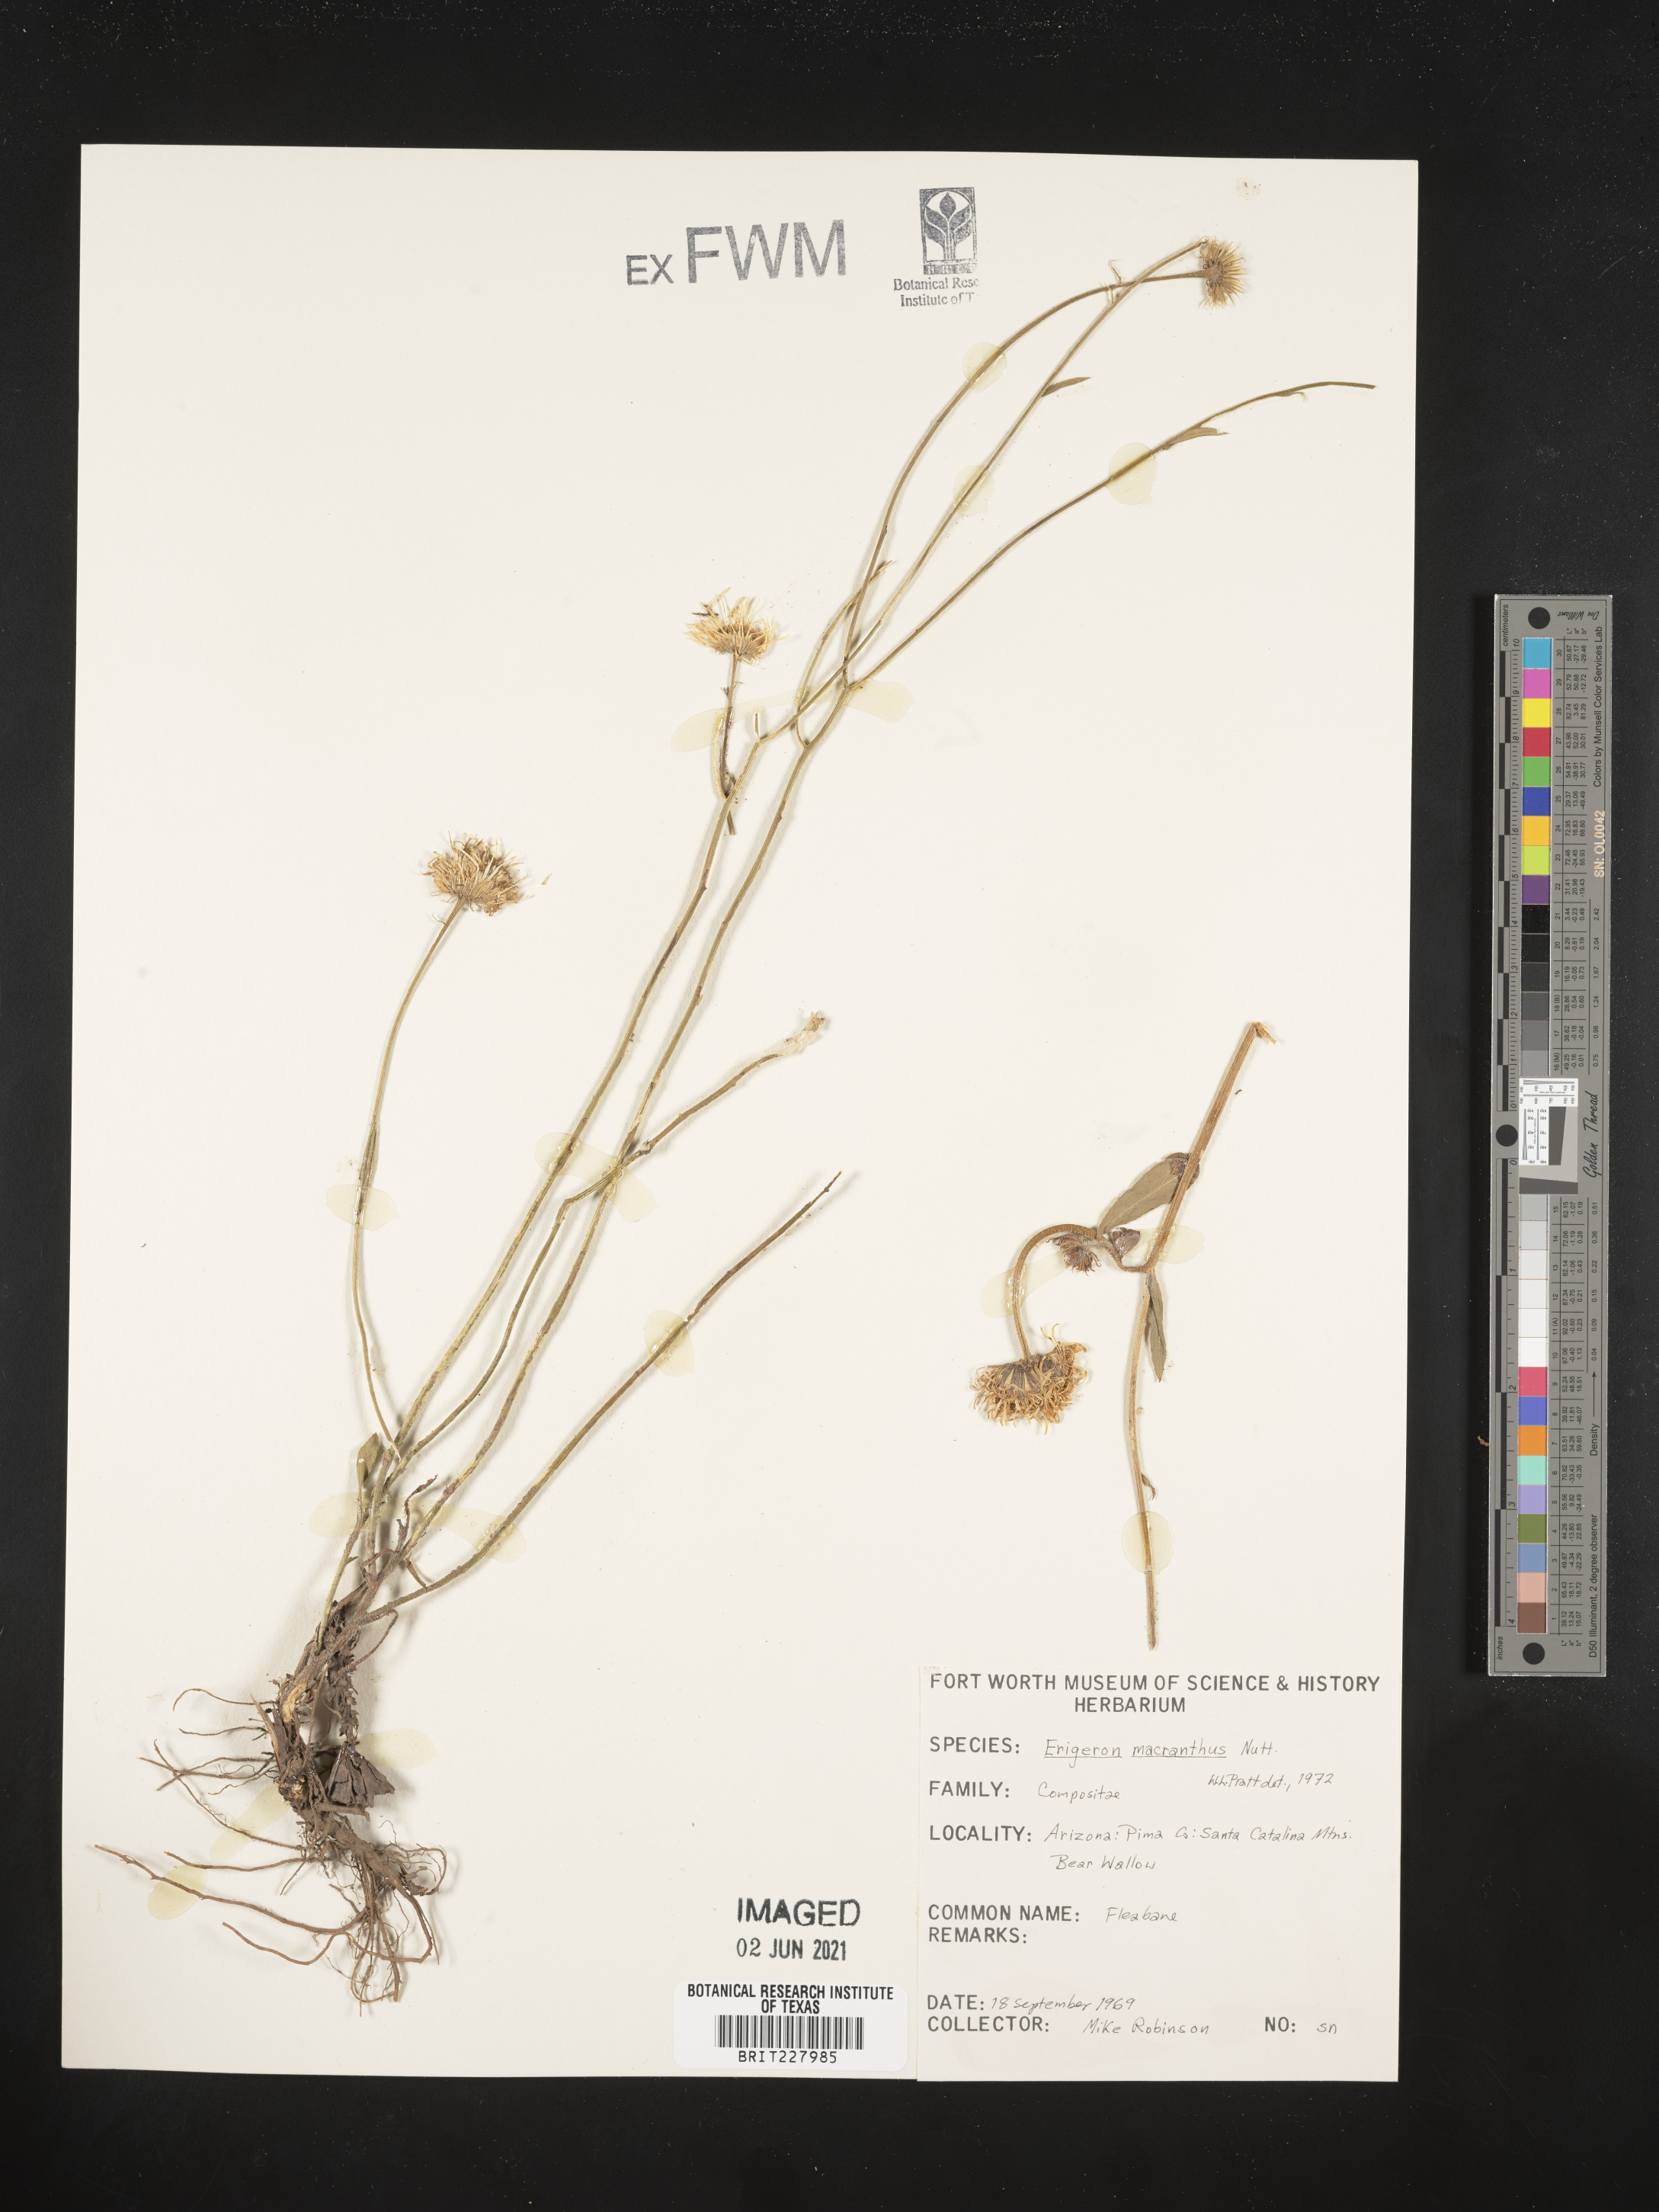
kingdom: Plantae
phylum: Tracheophyta
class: Magnoliopsida
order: Asterales
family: Asteraceae
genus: Erigeron
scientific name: Erigeron speciosus
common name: Aspen fleabane
